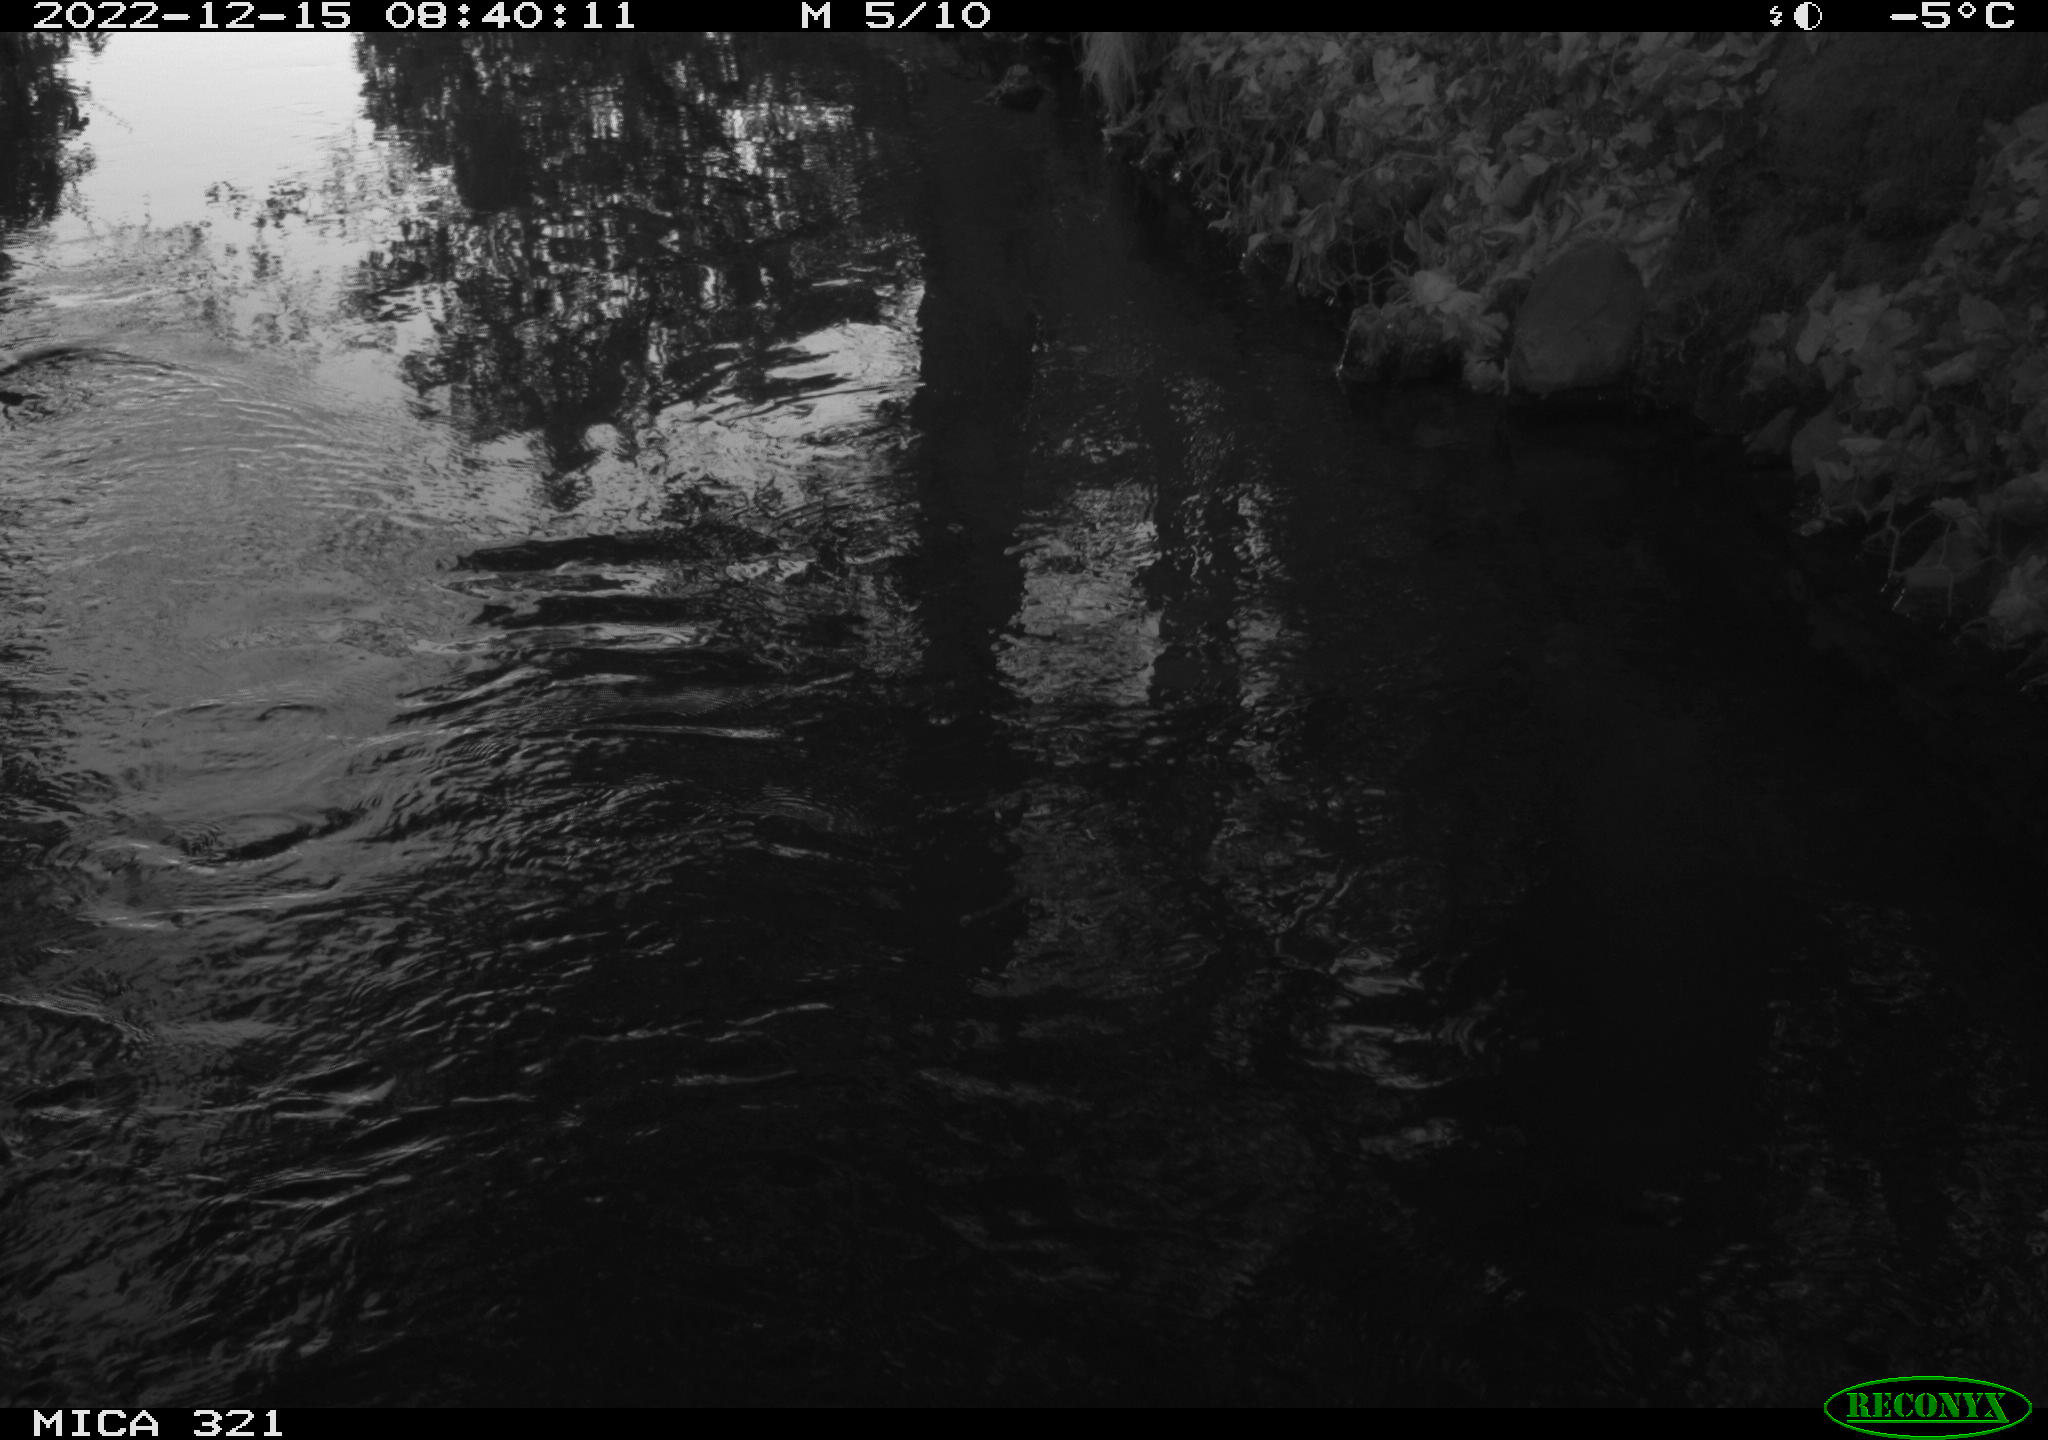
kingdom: Animalia
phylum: Chordata
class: Aves
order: Pelecaniformes
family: Ardeidae
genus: Ardea
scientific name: Ardea cinerea
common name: Grey heron
